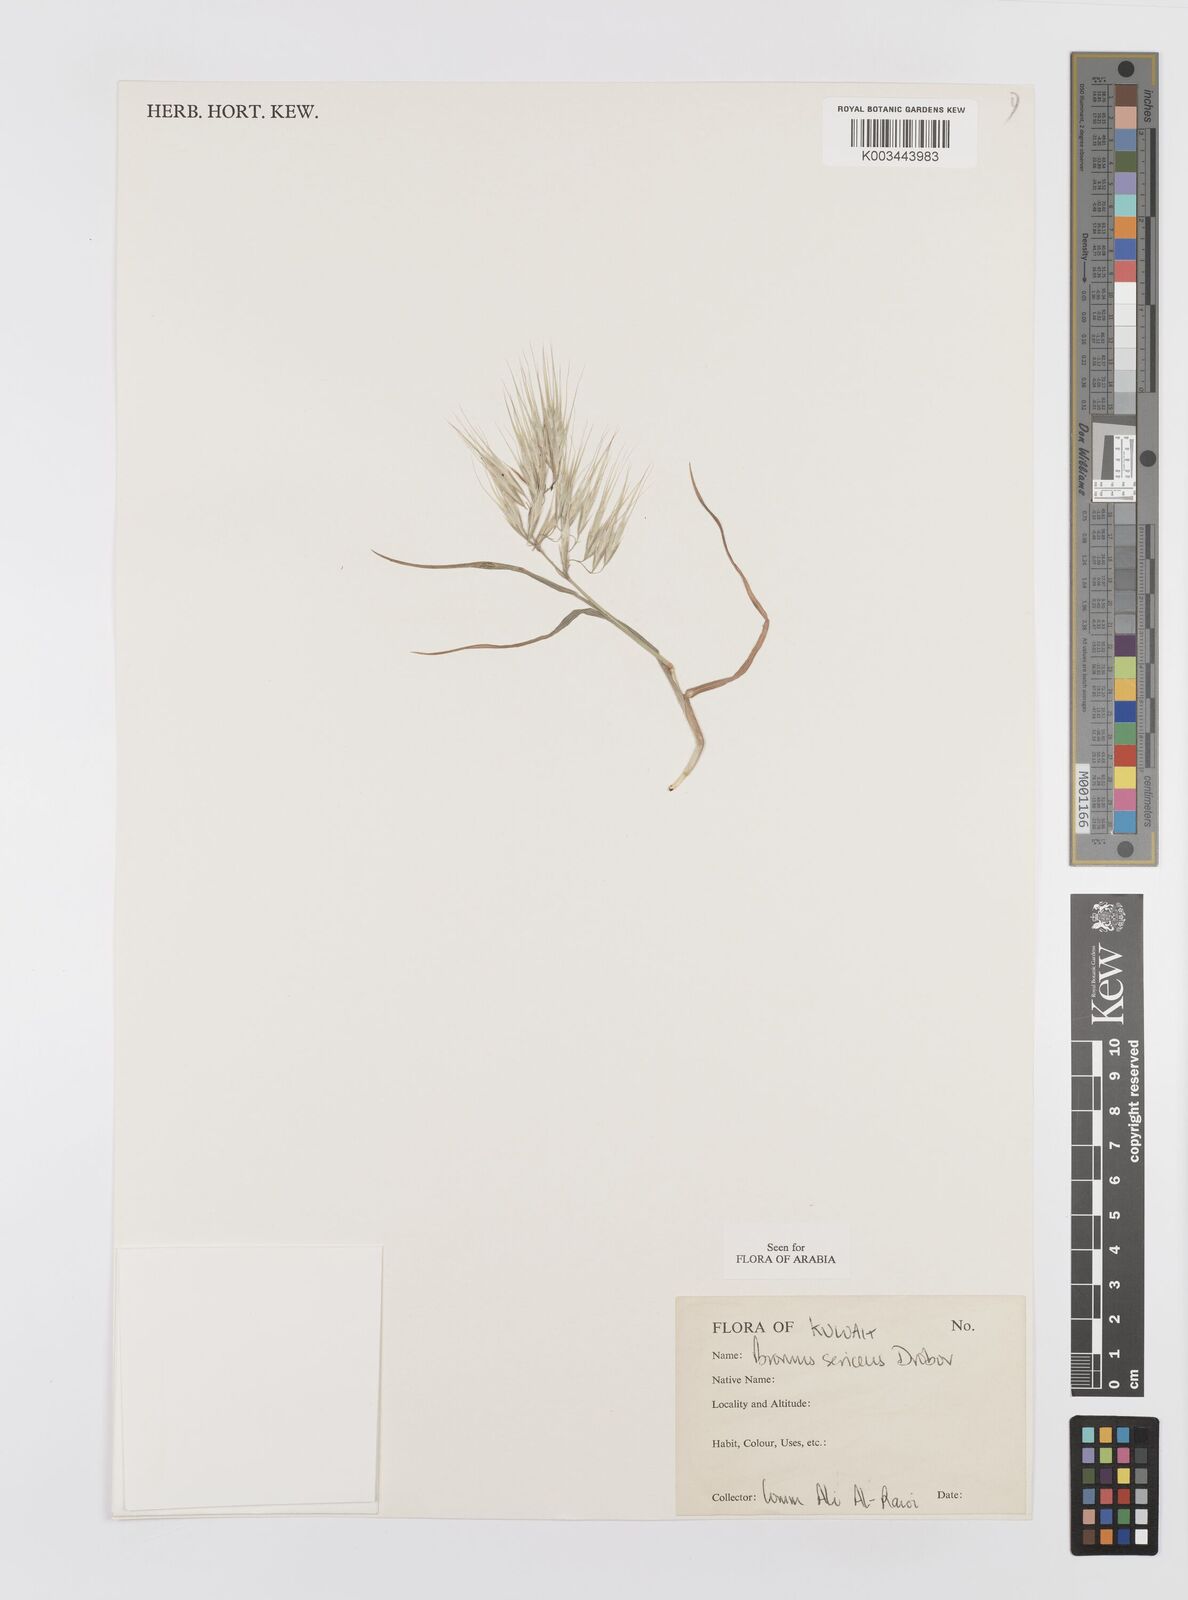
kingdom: Plantae
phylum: Tracheophyta
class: Liliopsida
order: Poales
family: Poaceae
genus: Bromus
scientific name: Bromus moeszii
